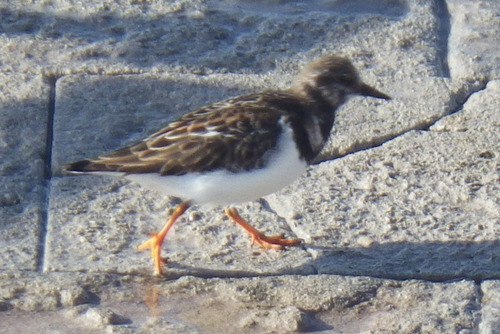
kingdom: Animalia
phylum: Chordata
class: Aves
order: Charadriiformes
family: Scolopacidae
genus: Arenaria
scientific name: Arenaria interpres
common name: Ruddy turnstone
